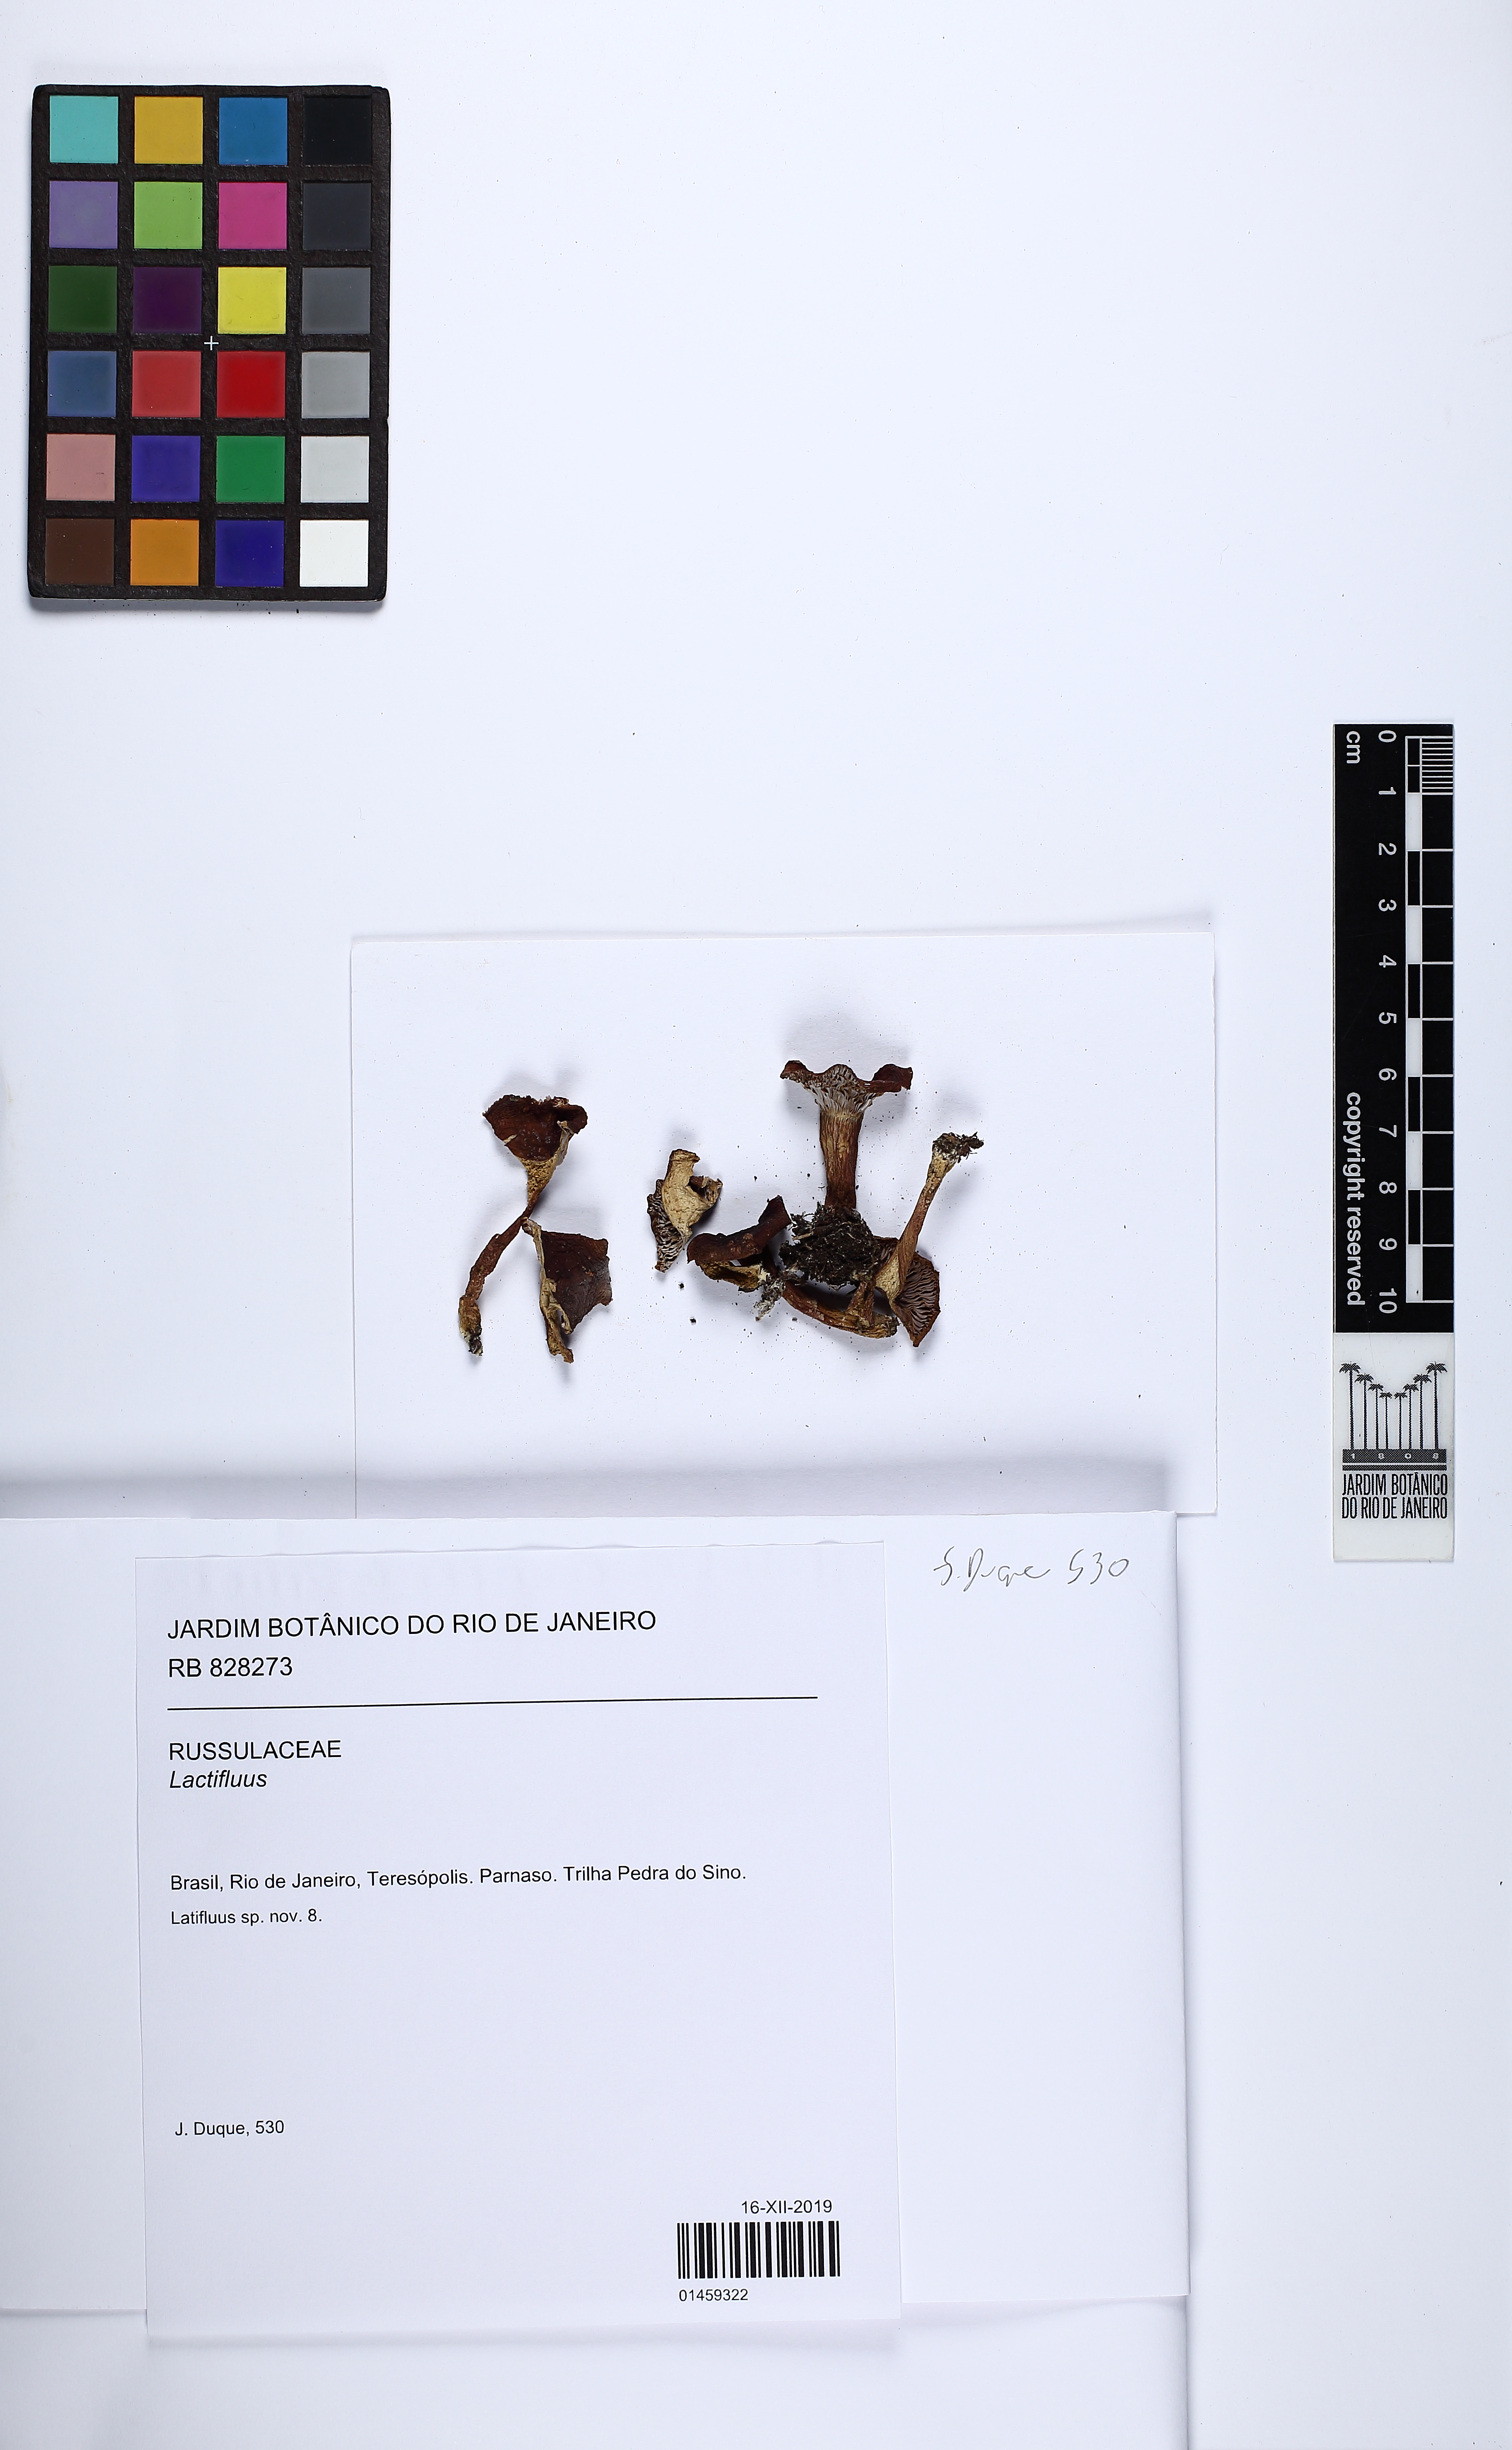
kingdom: Fungi
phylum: Basidiomycota
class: Agaricomycetes
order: Russulales
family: Russulaceae
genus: Lactifluus
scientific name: Lactifluus
